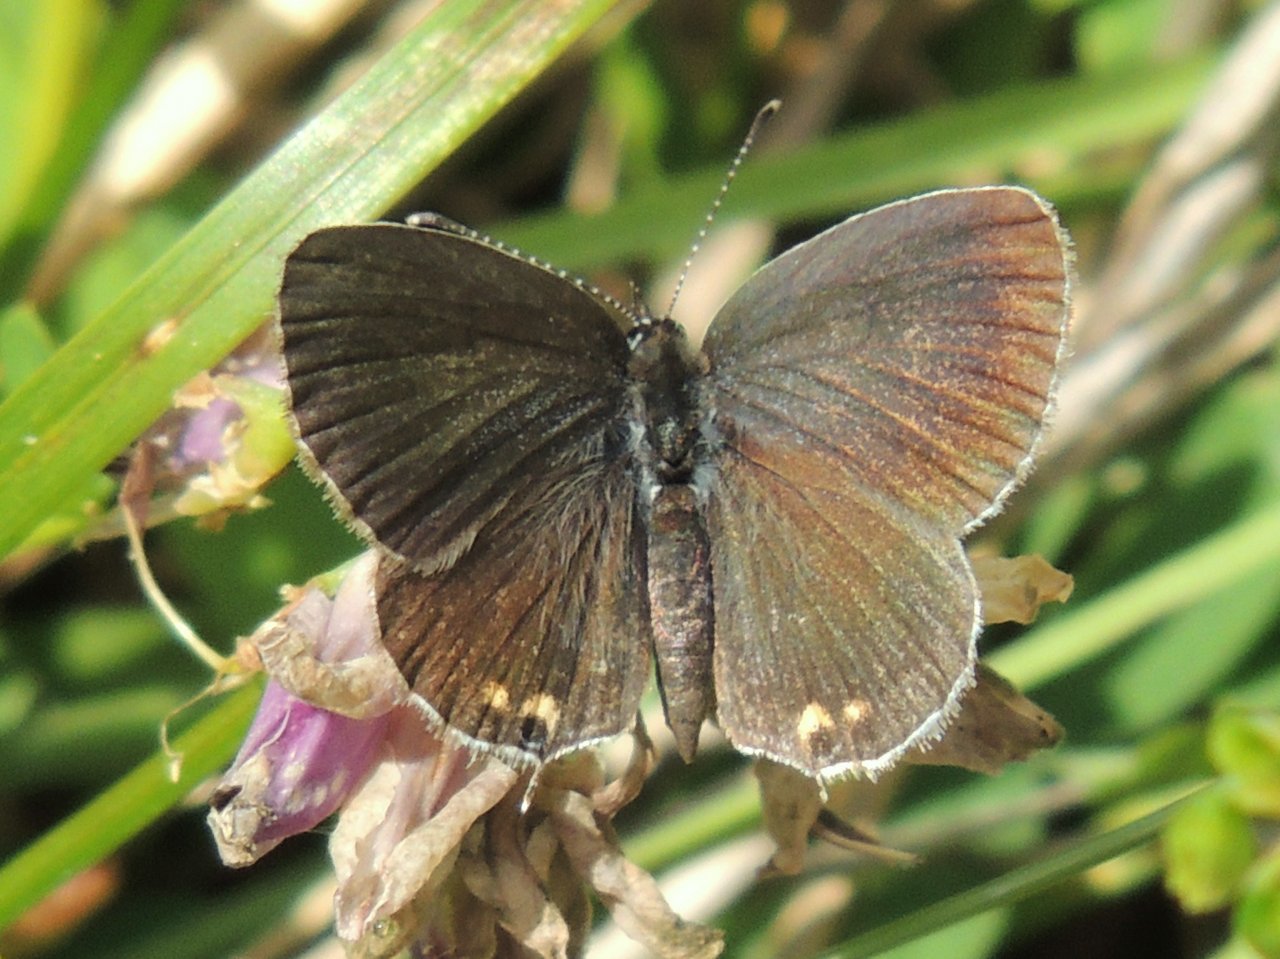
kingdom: Animalia
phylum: Arthropoda
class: Insecta
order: Lepidoptera
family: Lycaenidae
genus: Elkalyce
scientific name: Elkalyce comyntas
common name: Eastern Tailed-Blue
